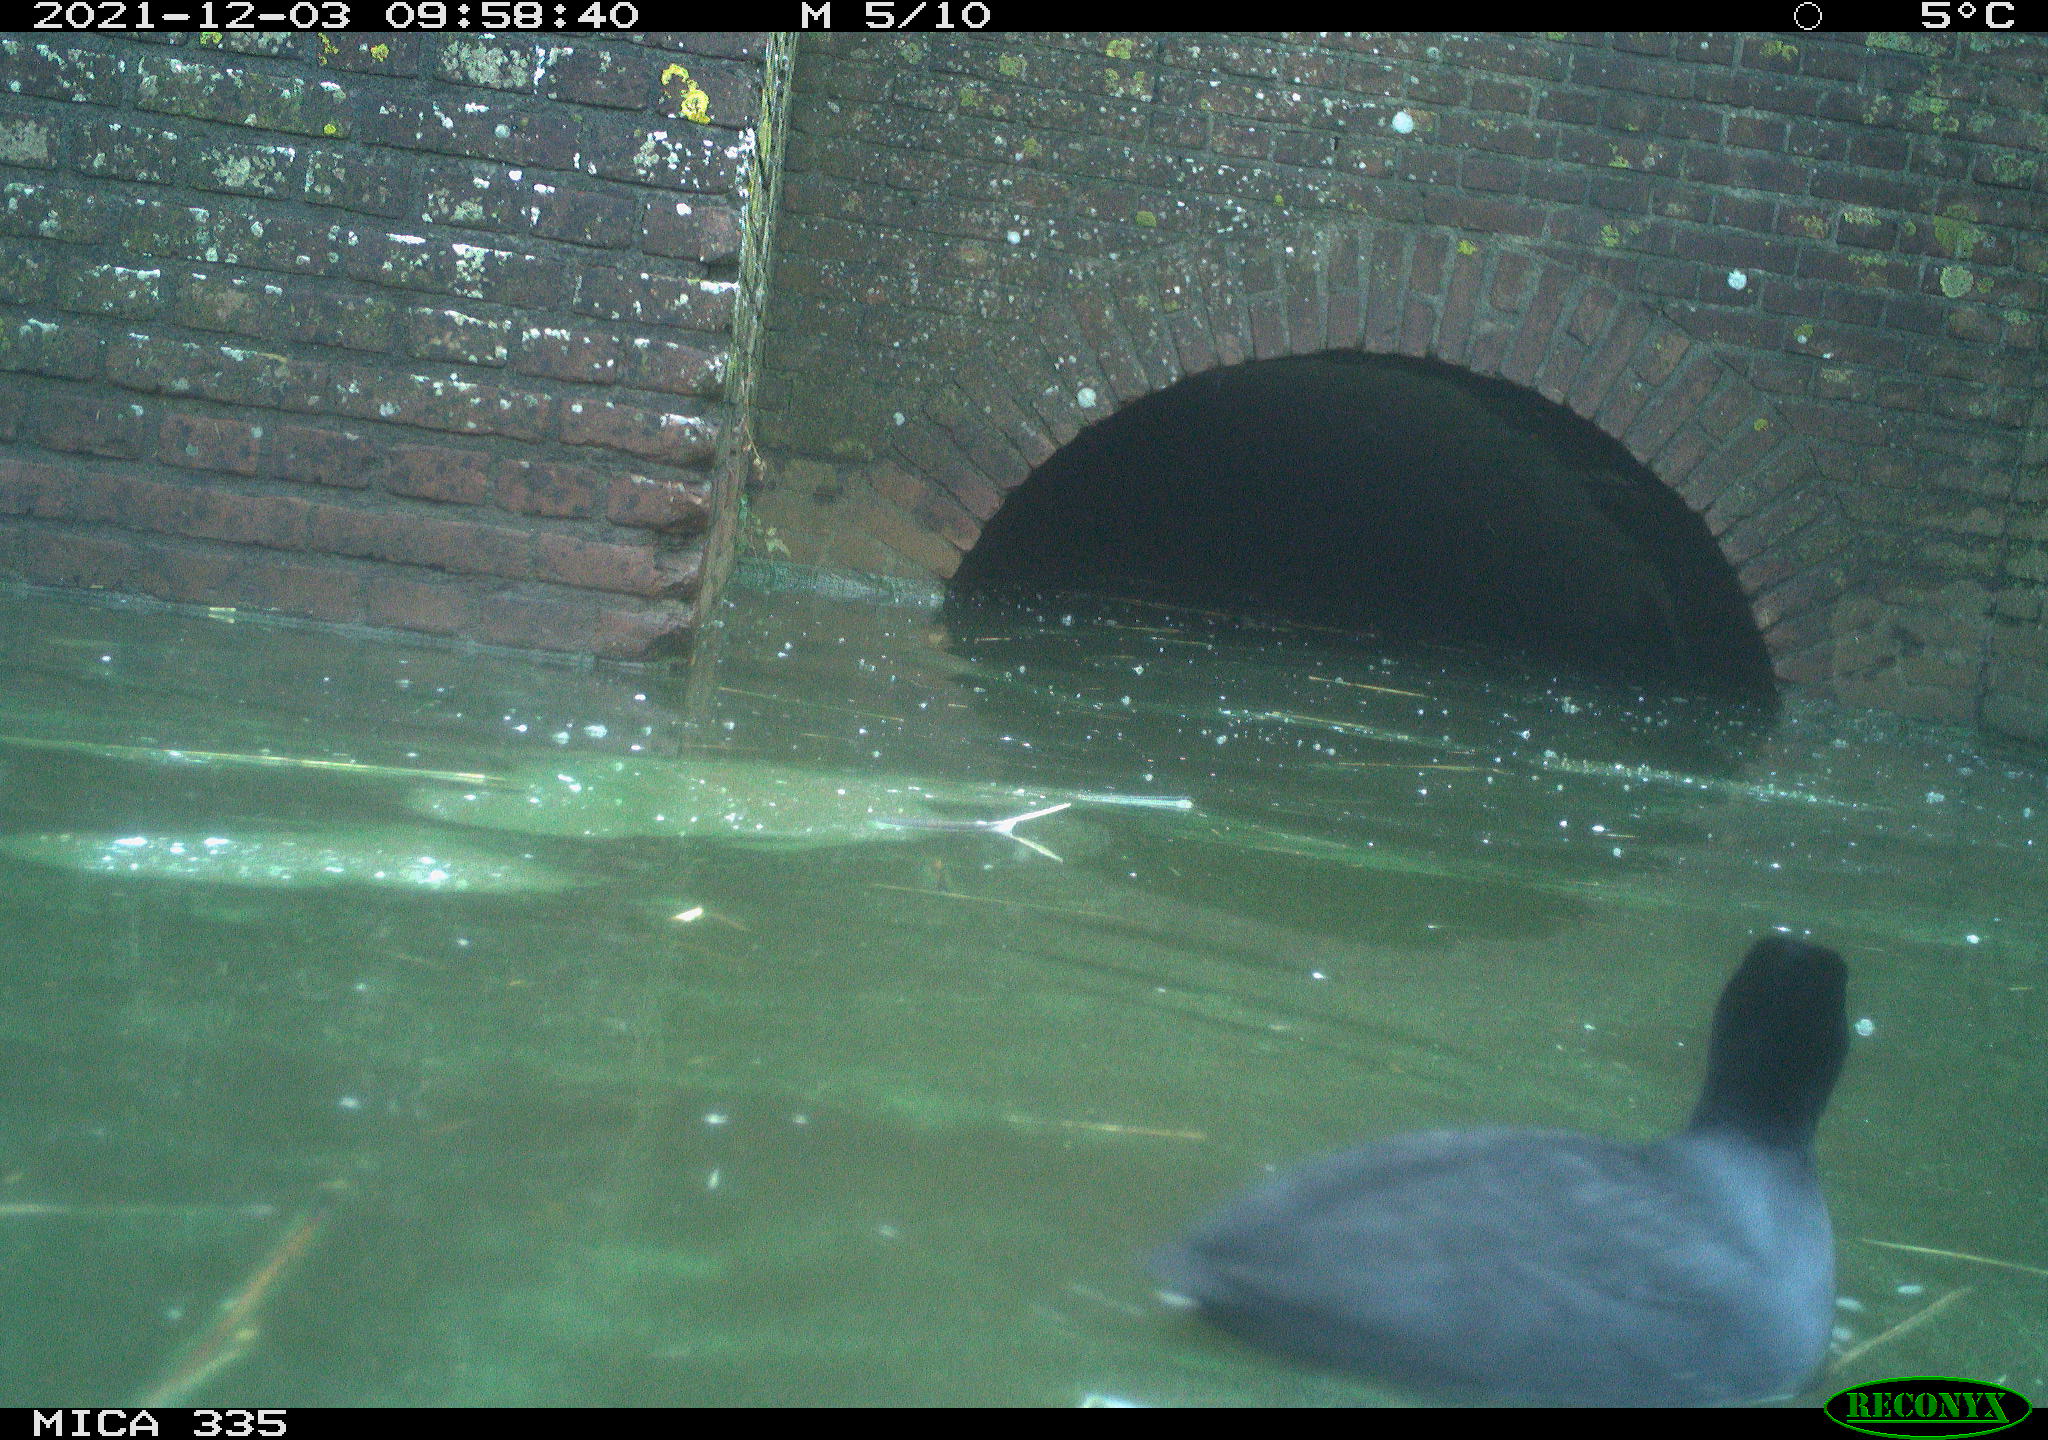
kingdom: Animalia
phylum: Chordata
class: Aves
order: Gruiformes
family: Rallidae
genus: Fulica
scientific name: Fulica atra
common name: Eurasian coot
